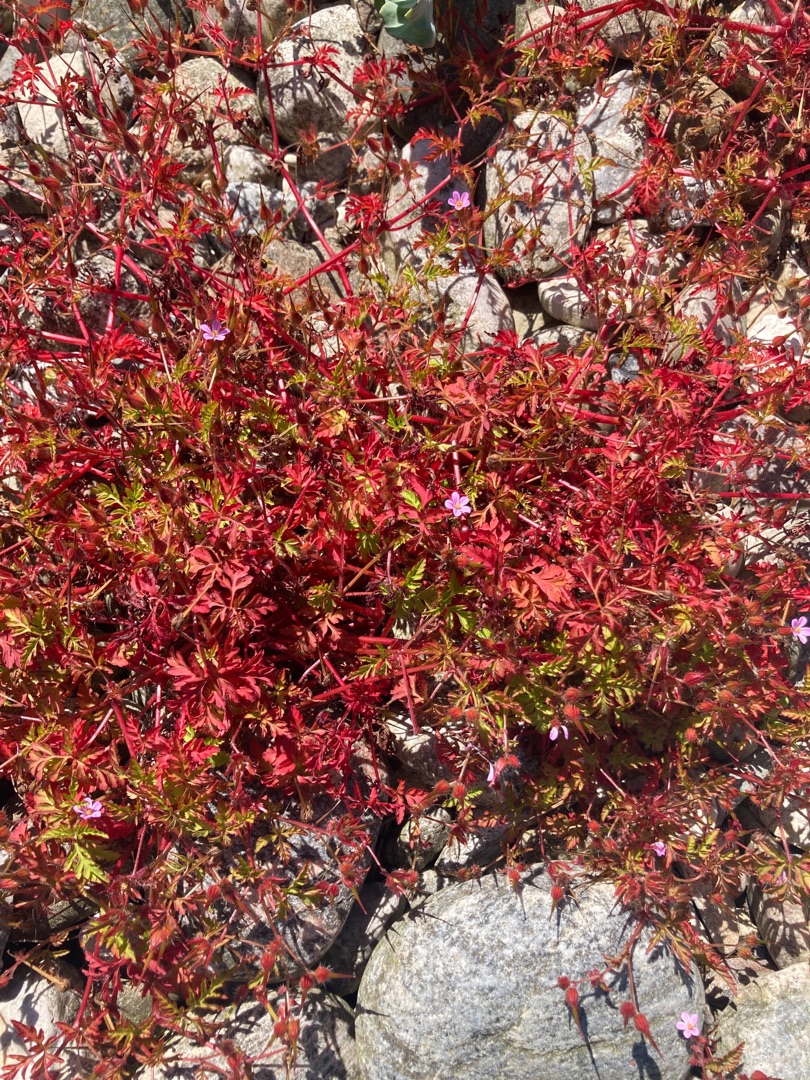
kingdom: Plantae
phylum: Tracheophyta
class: Magnoliopsida
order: Geraniales
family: Geraniaceae
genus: Geranium
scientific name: Geranium purpureum
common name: Strand-storkenæb
